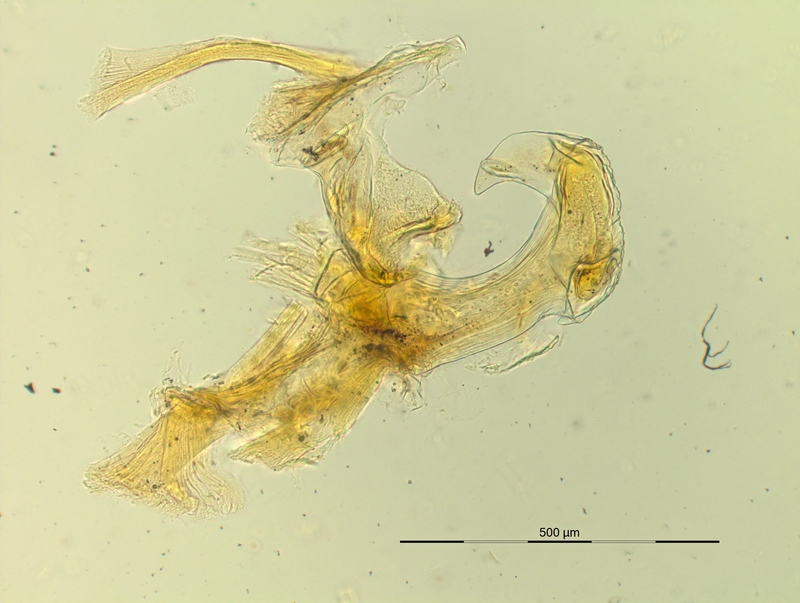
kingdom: Animalia
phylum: Arthropoda
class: Diplopoda
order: Chordeumatida
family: Craspedosomatidae
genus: Pyrgocyphosoma
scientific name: Pyrgocyphosoma aspidiorum
